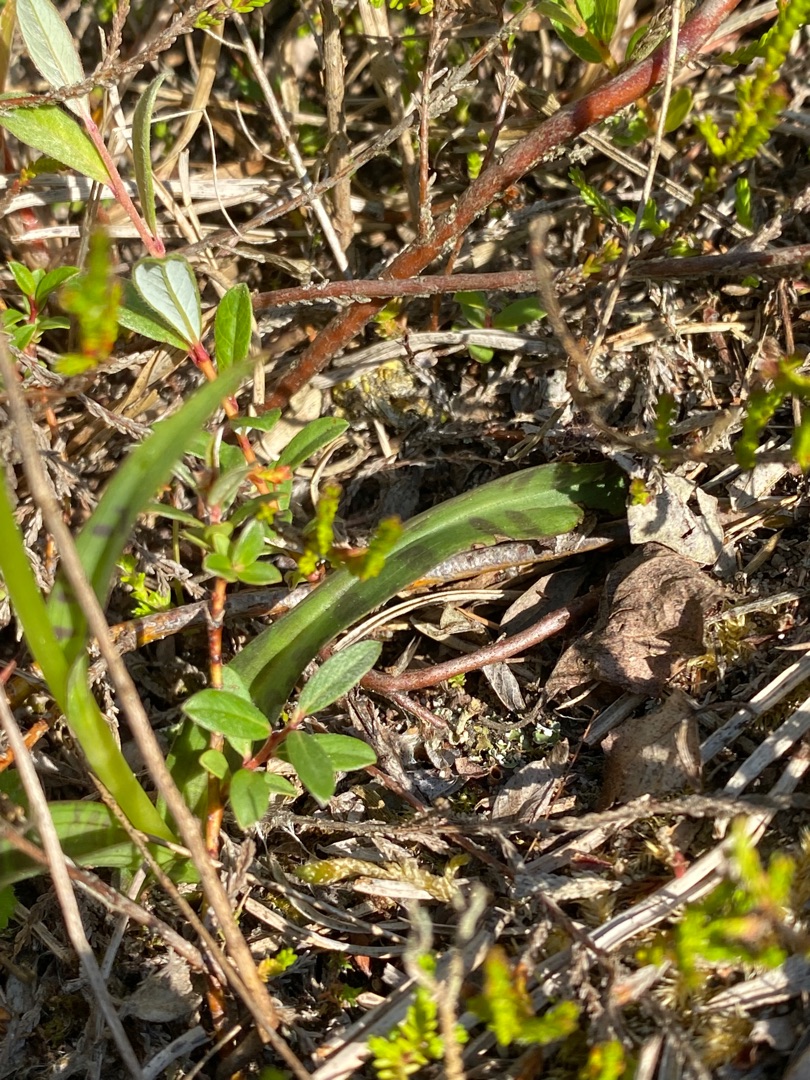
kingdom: Plantae
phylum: Tracheophyta
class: Liliopsida
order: Asparagales
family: Orchidaceae
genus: Dactylorhiza
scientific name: Dactylorhiza maculata
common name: Plettet gøgeurt
